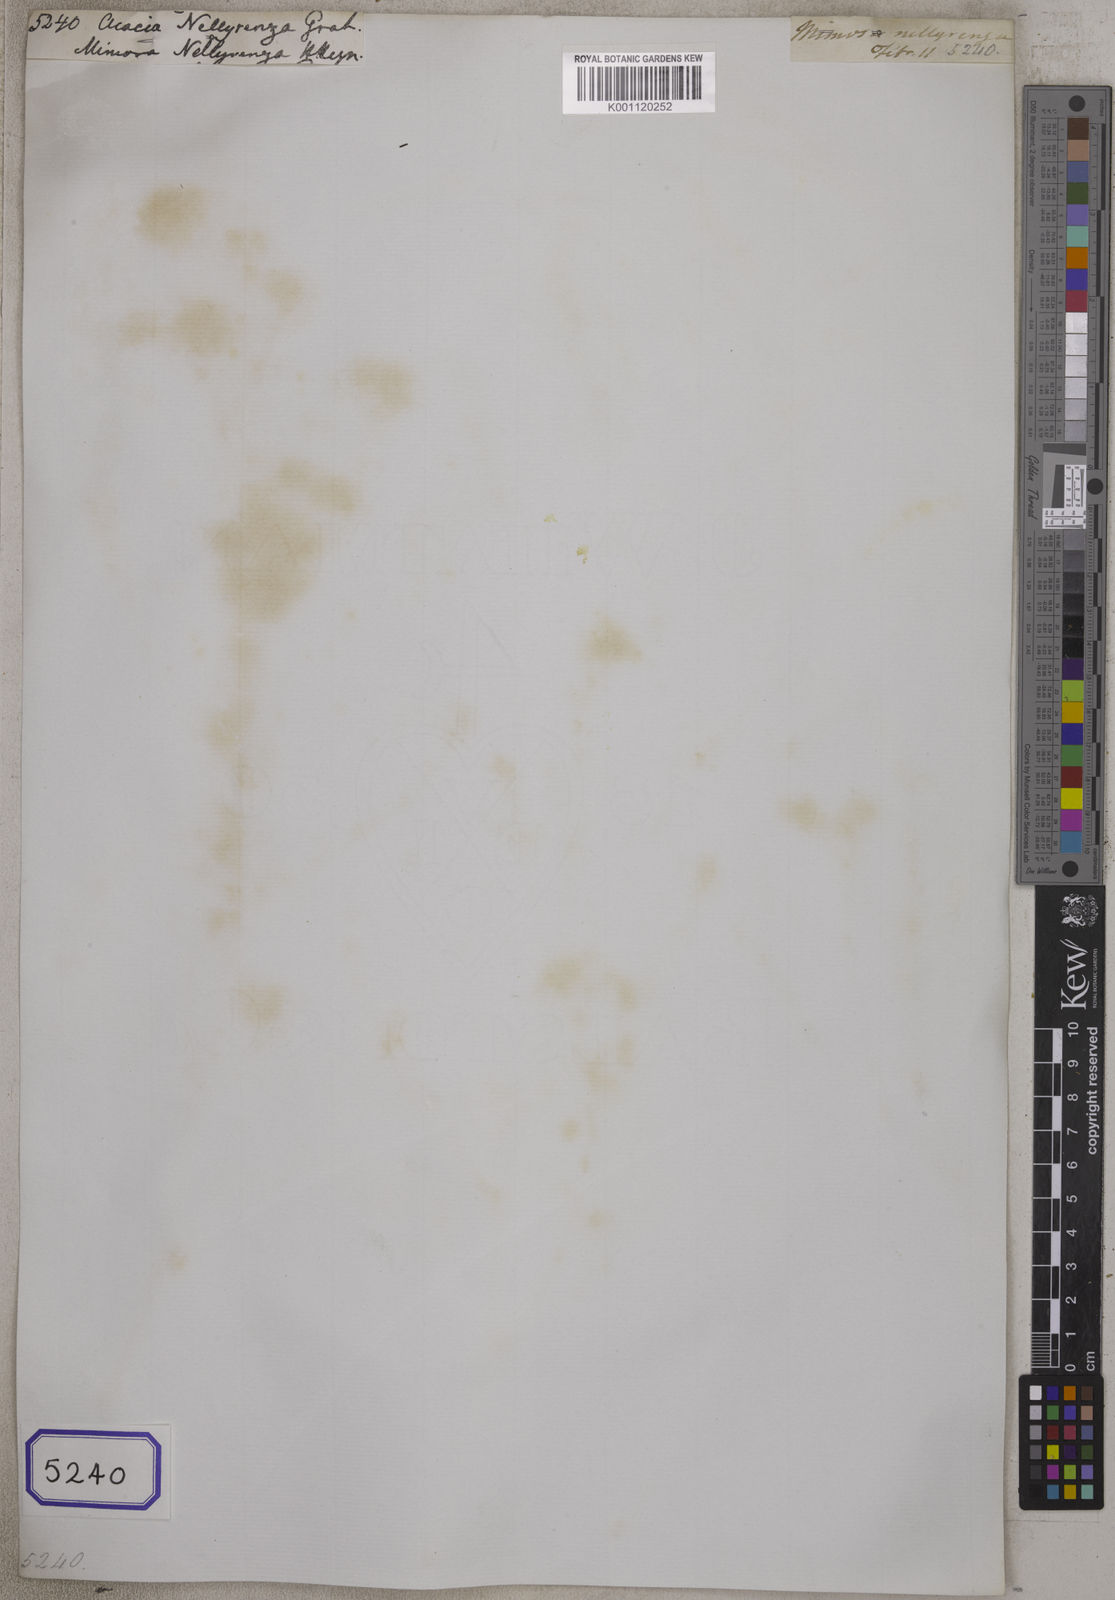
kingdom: Plantae
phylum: Tracheophyta
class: Magnoliopsida
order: Fabales
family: Fabaceae
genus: Albizia
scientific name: Albizia amara
